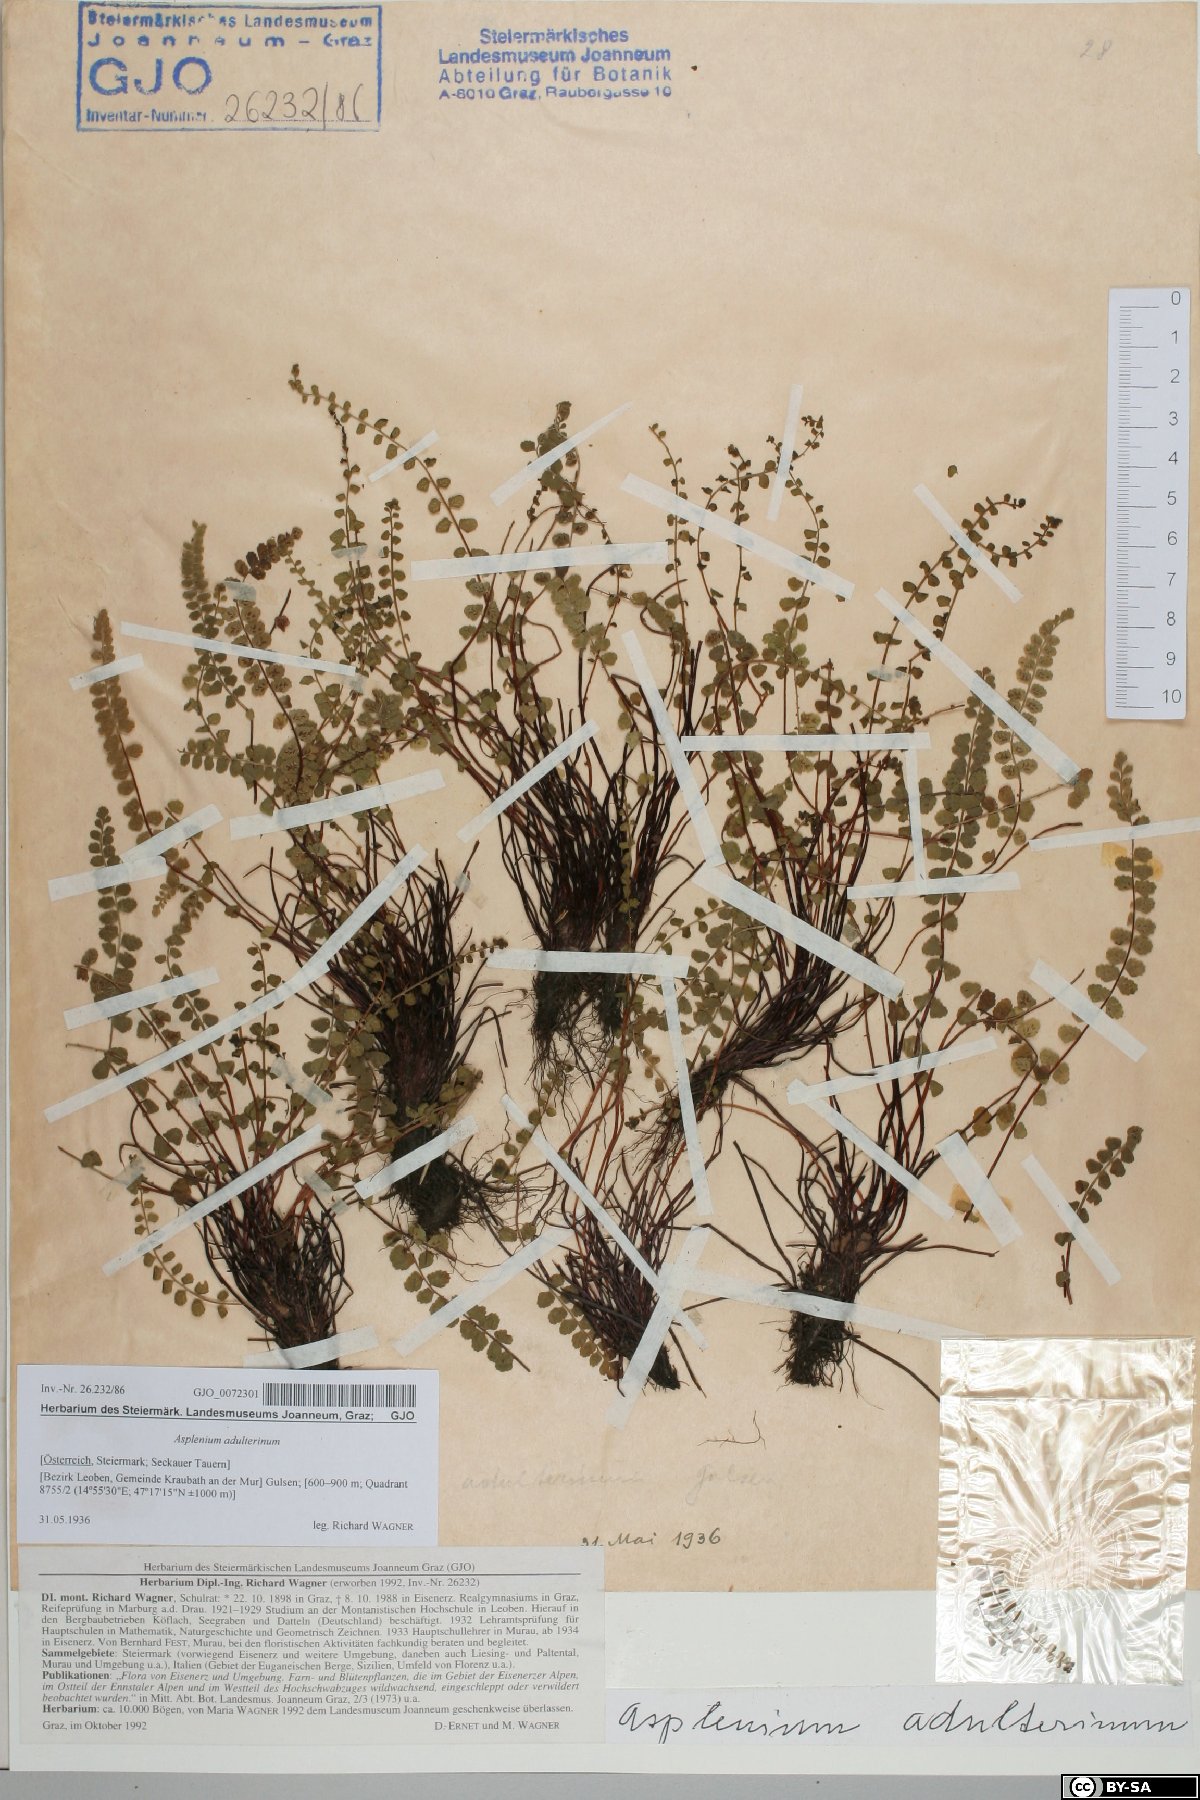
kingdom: Plantae
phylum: Tracheophyta
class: Polypodiopsida
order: Polypodiales
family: Aspleniaceae
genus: Asplenium
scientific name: Asplenium adulterinum
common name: Adulterated spleenwort
